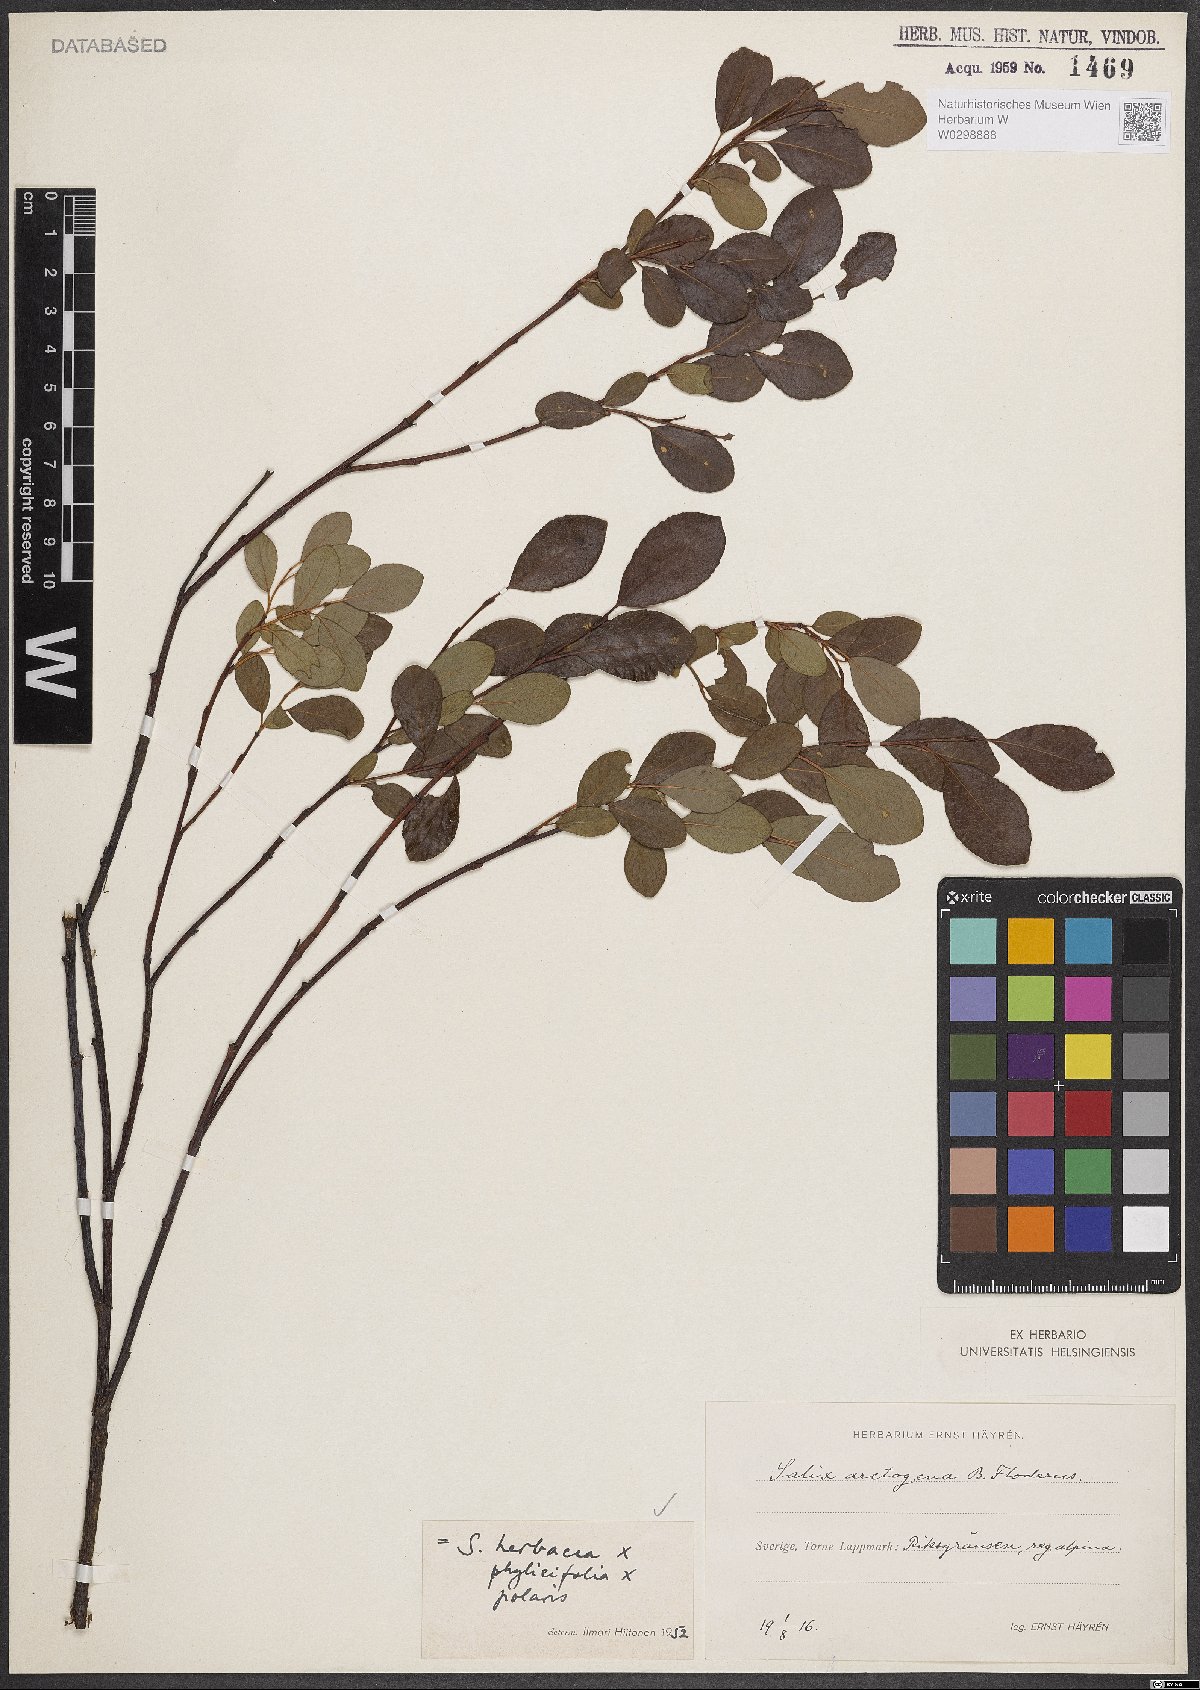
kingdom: Plantae
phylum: Tracheophyta
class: Magnoliopsida
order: Malpighiales
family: Salicaceae
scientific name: Salicaceae
